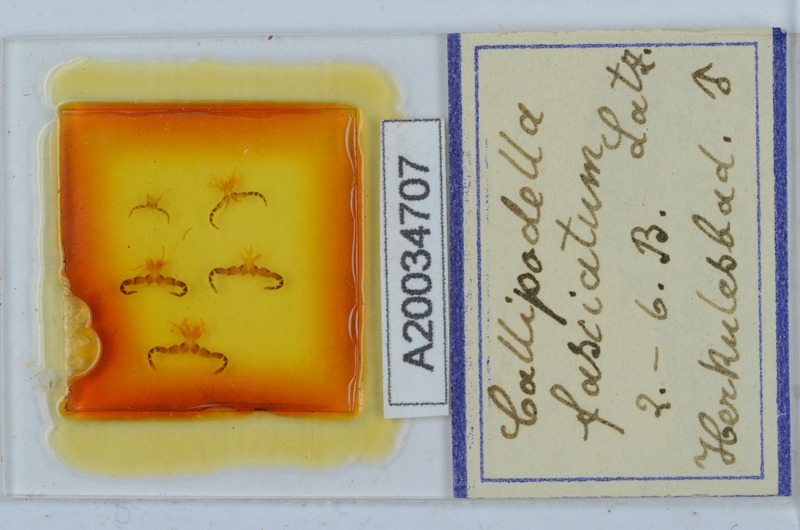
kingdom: Animalia
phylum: Arthropoda
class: Diplopoda
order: Callipodida
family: Schizopetalidae
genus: Callipodella
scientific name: Callipodella fasciata
